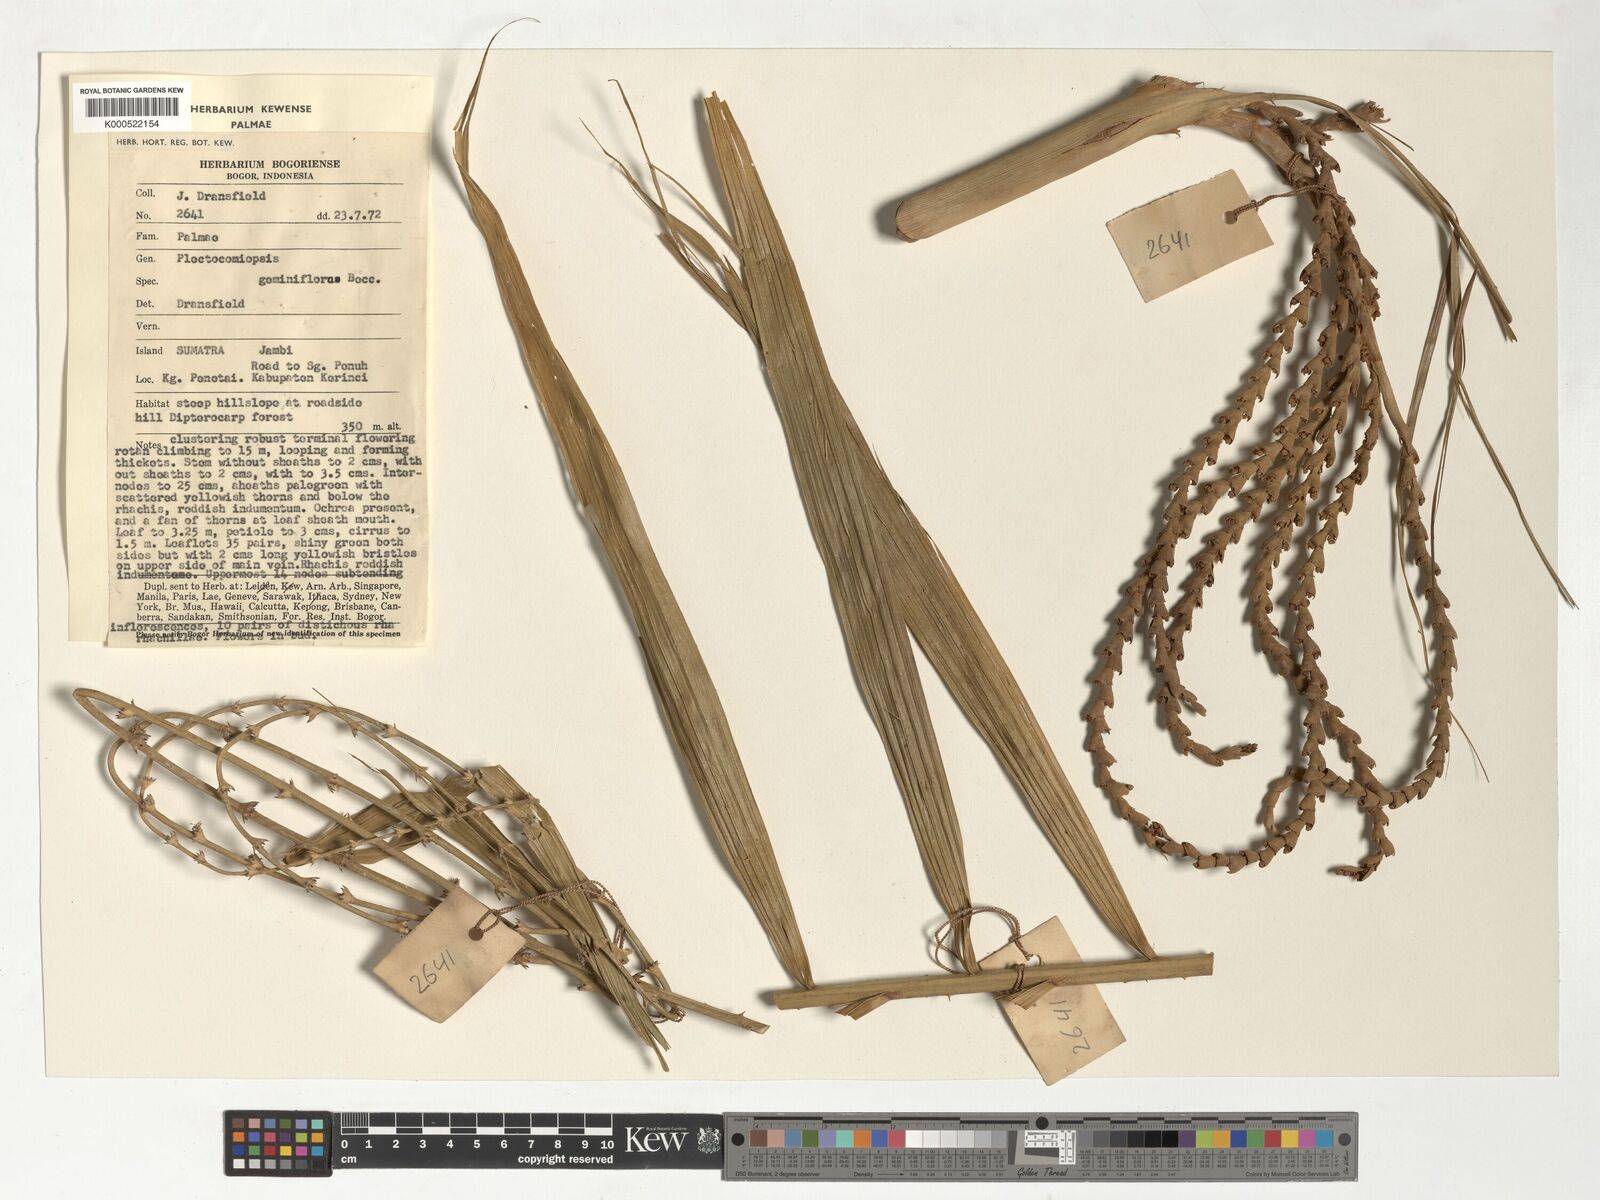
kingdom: Plantae
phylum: Tracheophyta
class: Liliopsida
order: Arecales
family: Arecaceae
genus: Plectocomiopsis
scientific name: Plectocomiopsis geminiflora
